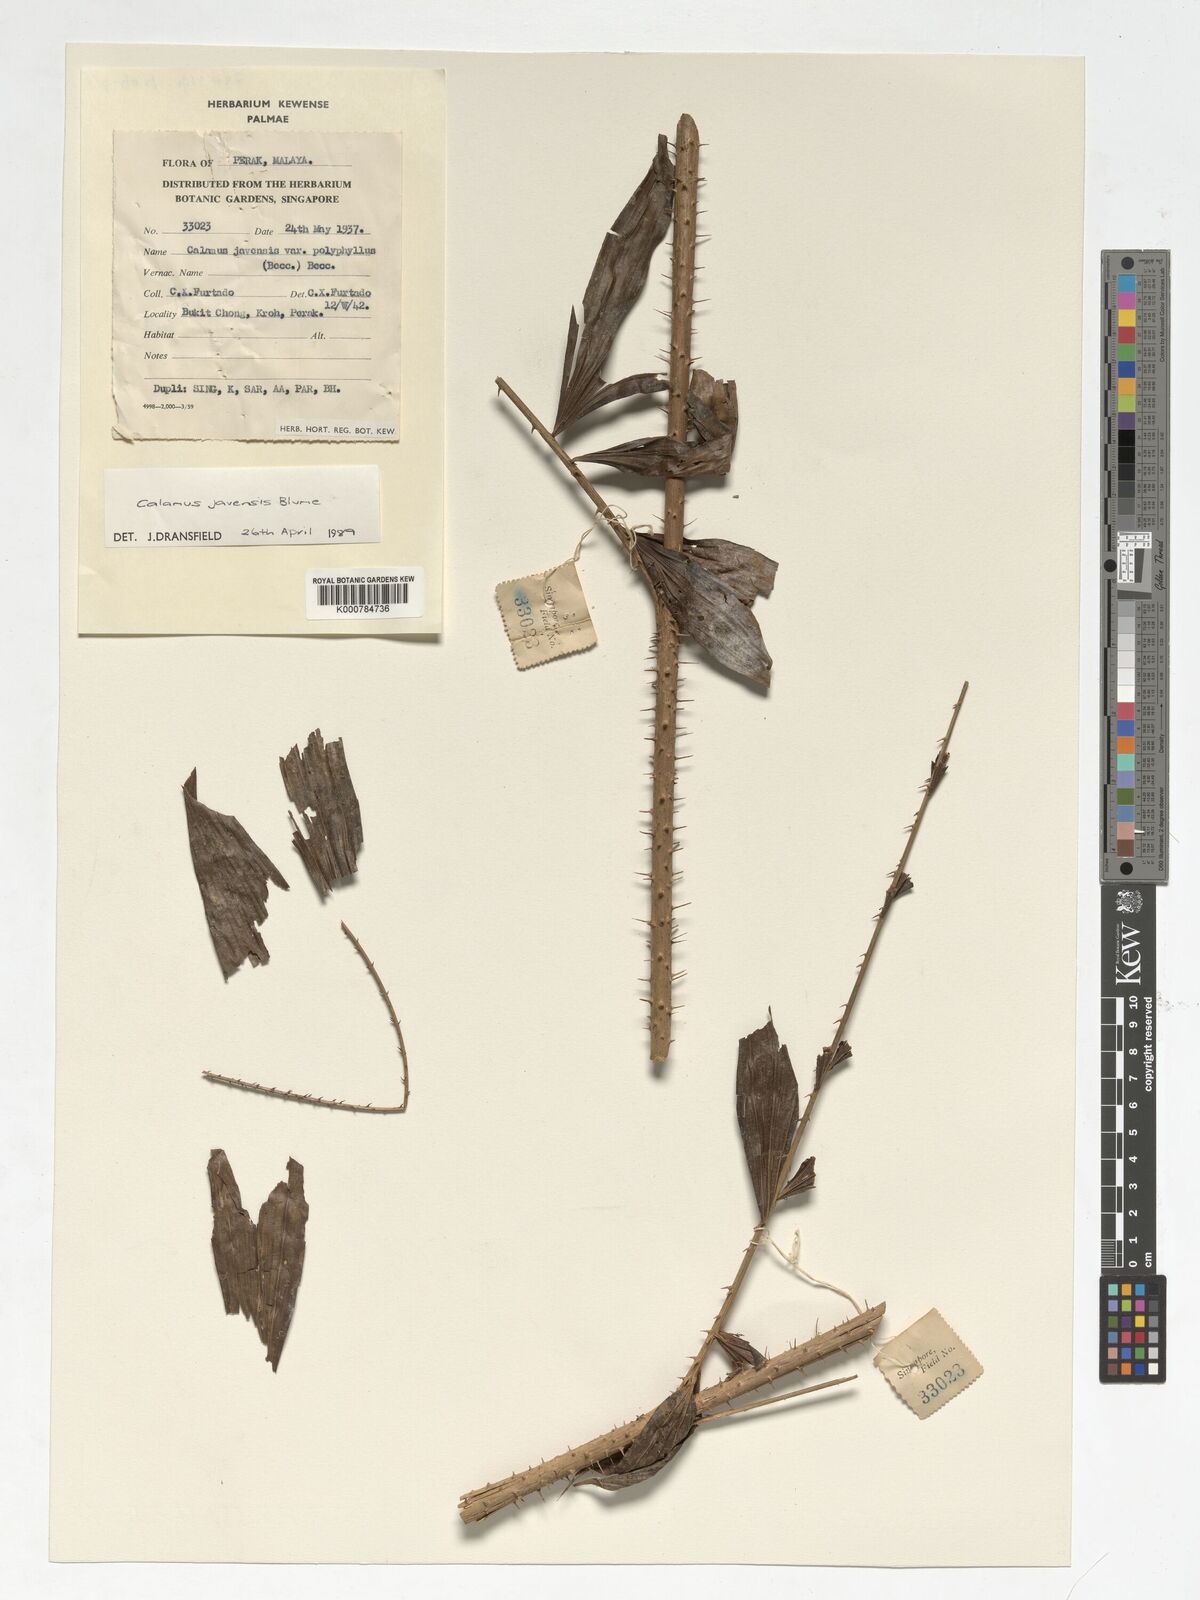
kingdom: Plantae
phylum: Tracheophyta
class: Liliopsida
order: Arecales
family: Arecaceae
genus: Calamus
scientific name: Calamus javensis
